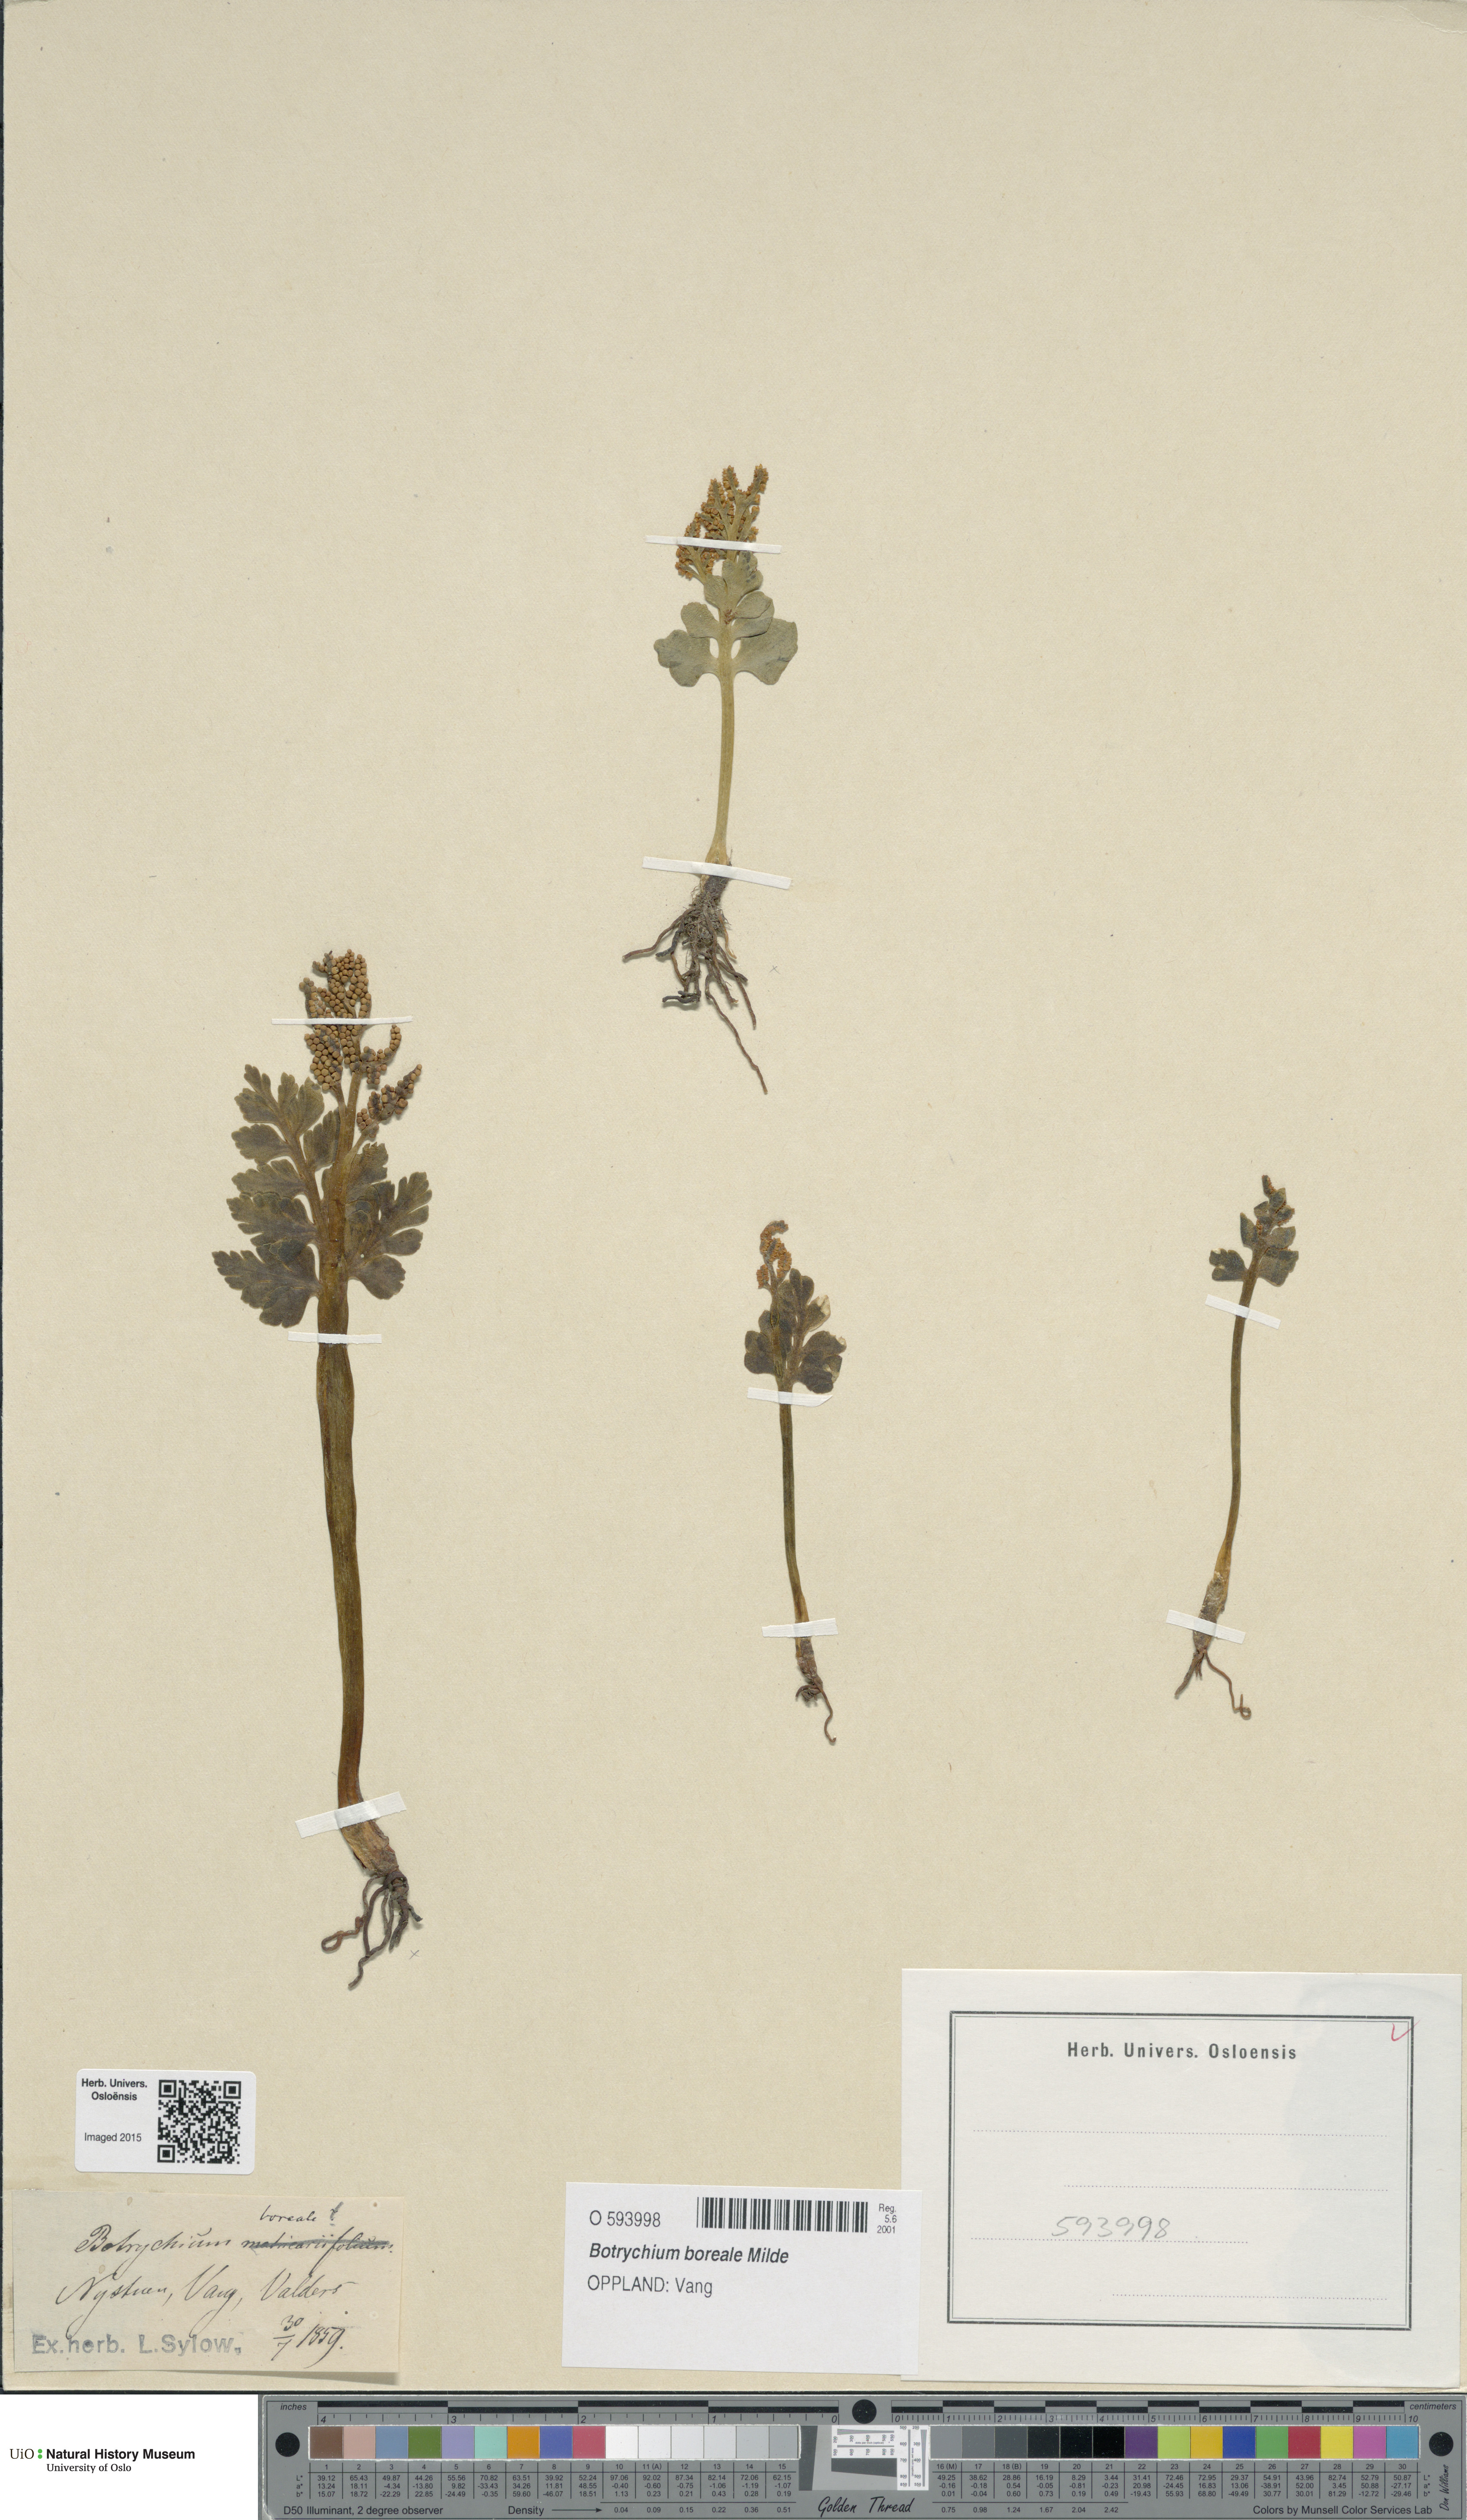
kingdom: Plantae
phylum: Tracheophyta
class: Polypodiopsida
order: Ophioglossales
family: Ophioglossaceae
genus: Botrychium
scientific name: Botrychium boreale
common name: Boreal moonwort
